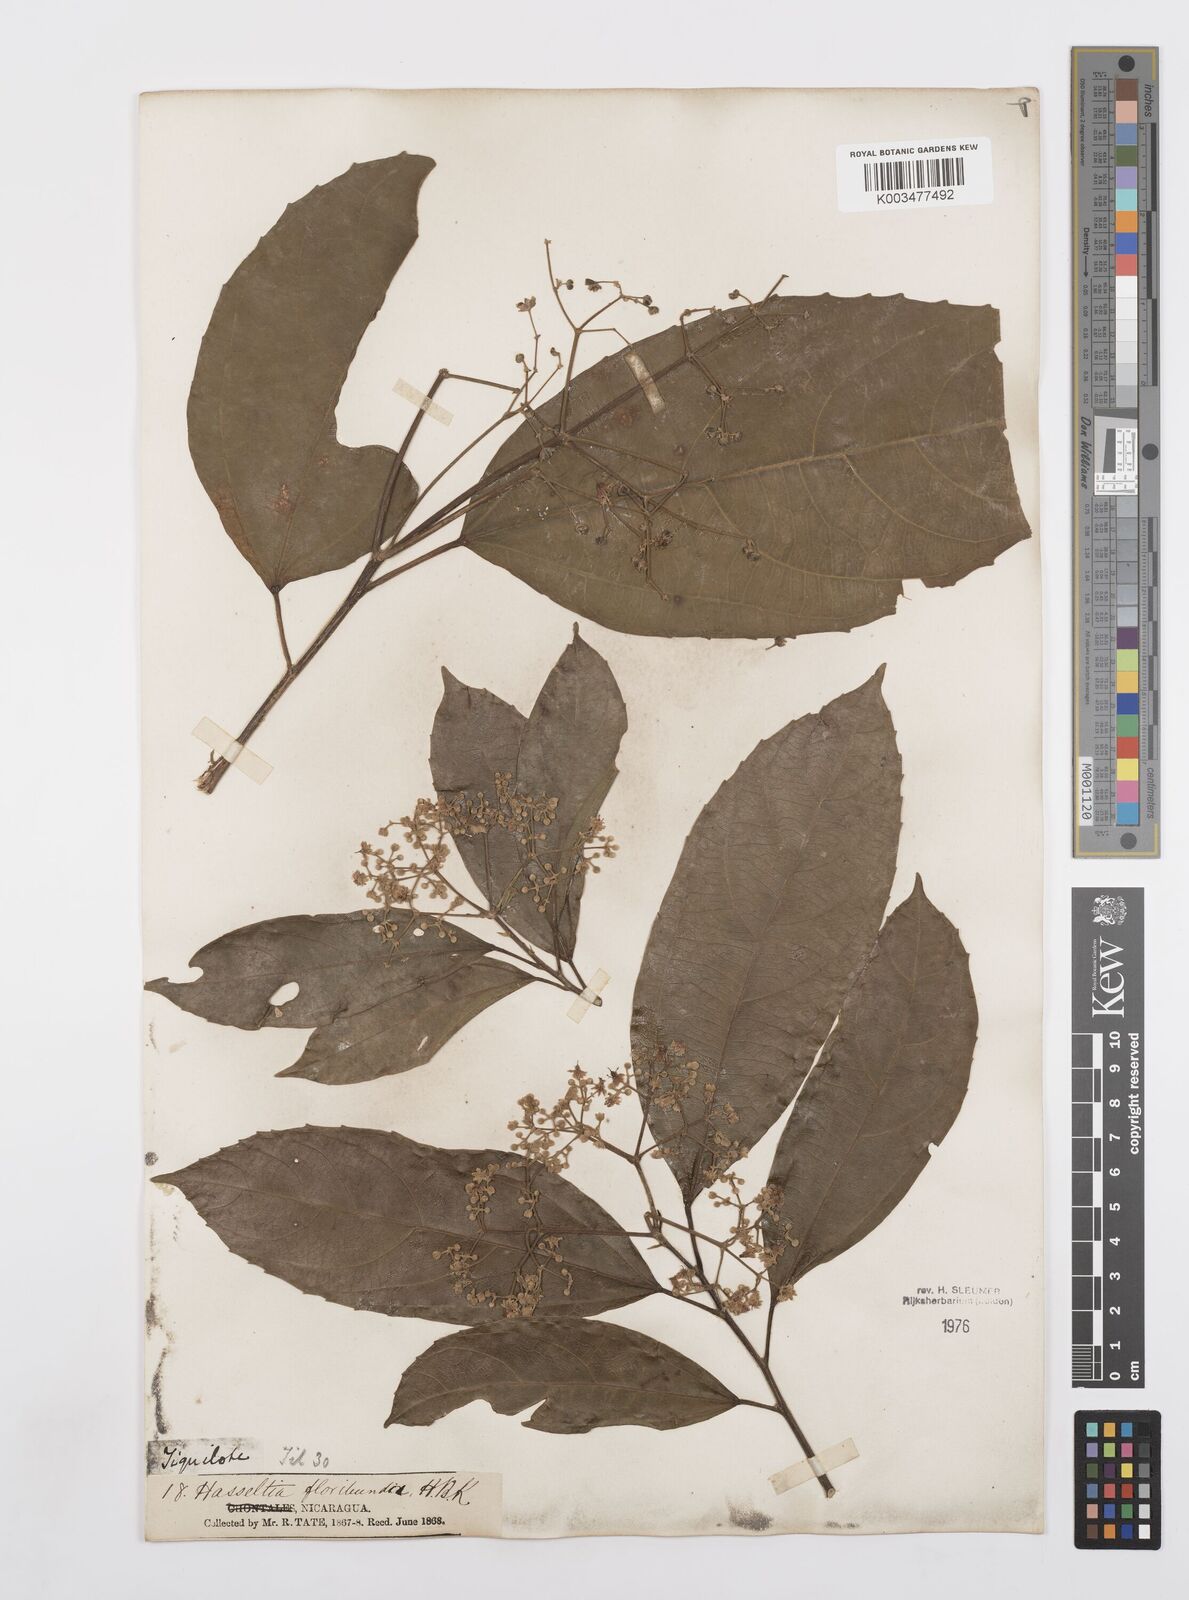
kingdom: Plantae
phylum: Tracheophyta
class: Magnoliopsida
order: Malpighiales
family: Salicaceae
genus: Hasseltia
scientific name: Hasseltia floribunda
